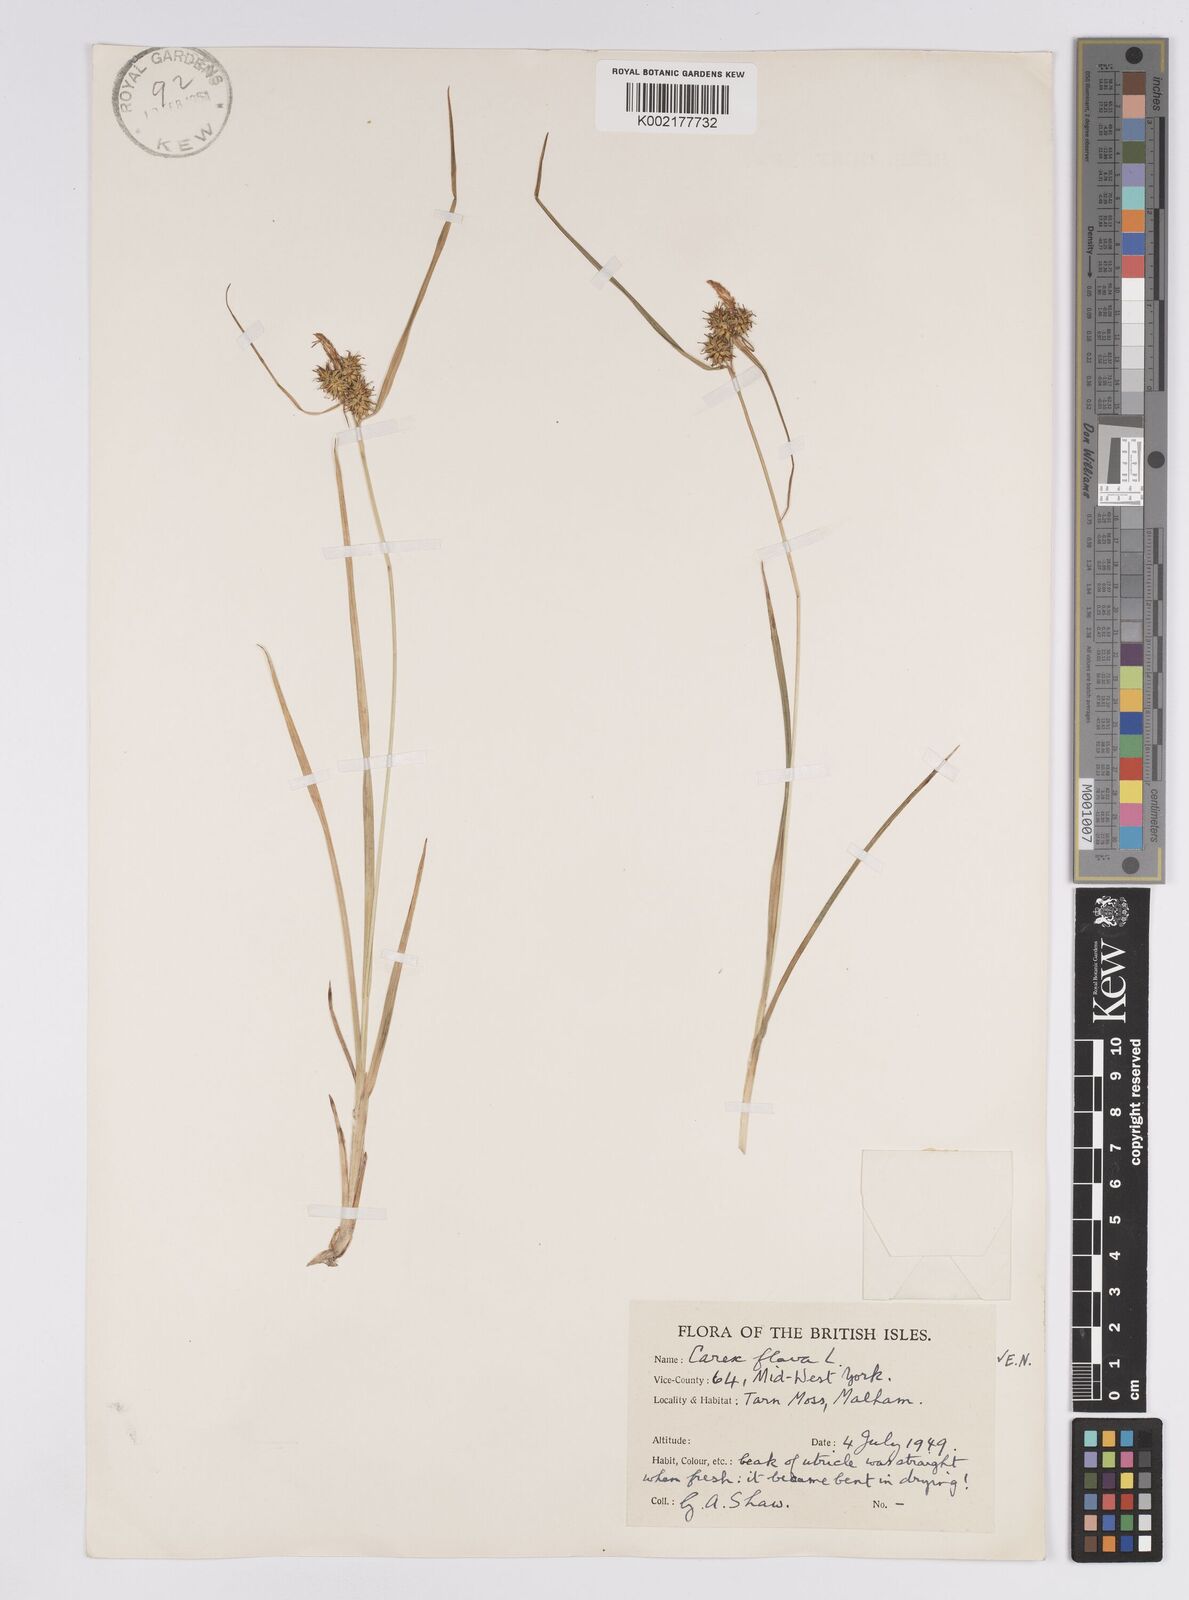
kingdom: Plantae
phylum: Tracheophyta
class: Liliopsida
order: Poales
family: Cyperaceae
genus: Carex
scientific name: Carex flava
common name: Large yellow-sedge
